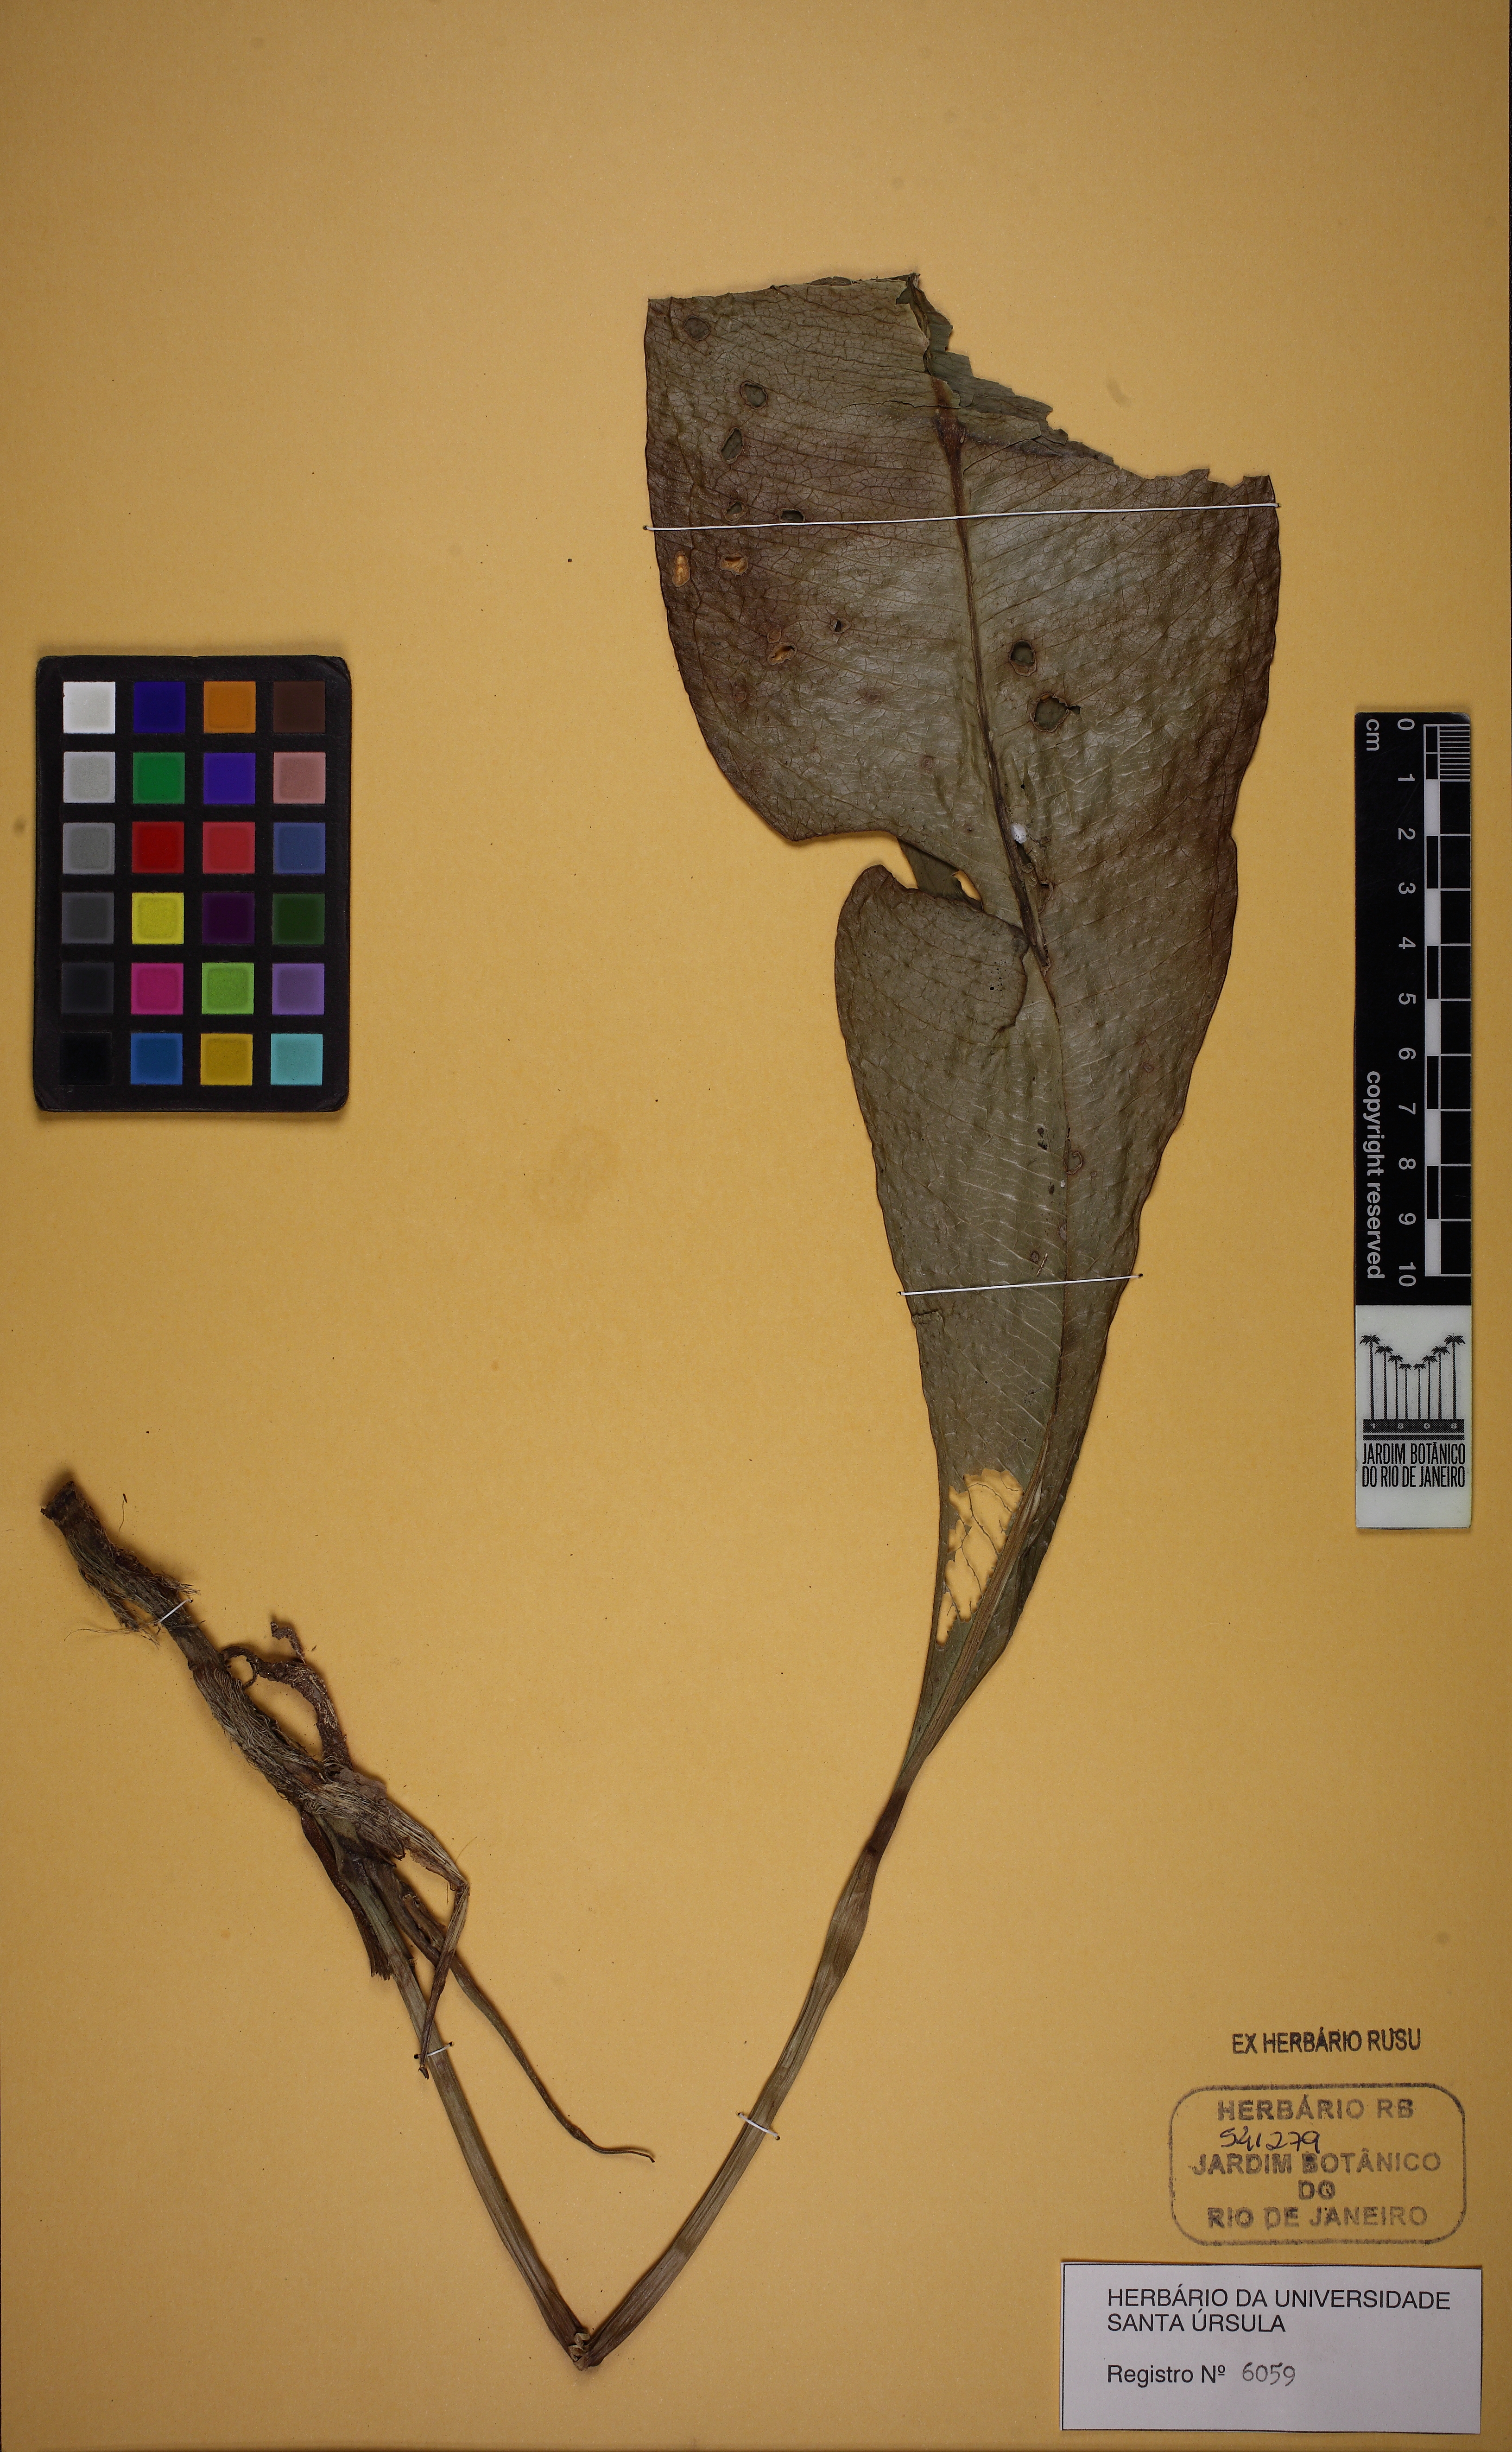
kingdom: Plantae
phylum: Tracheophyta
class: Liliopsida
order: Alismatales
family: Araceae
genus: Anthurium
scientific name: Anthurium intermedium
